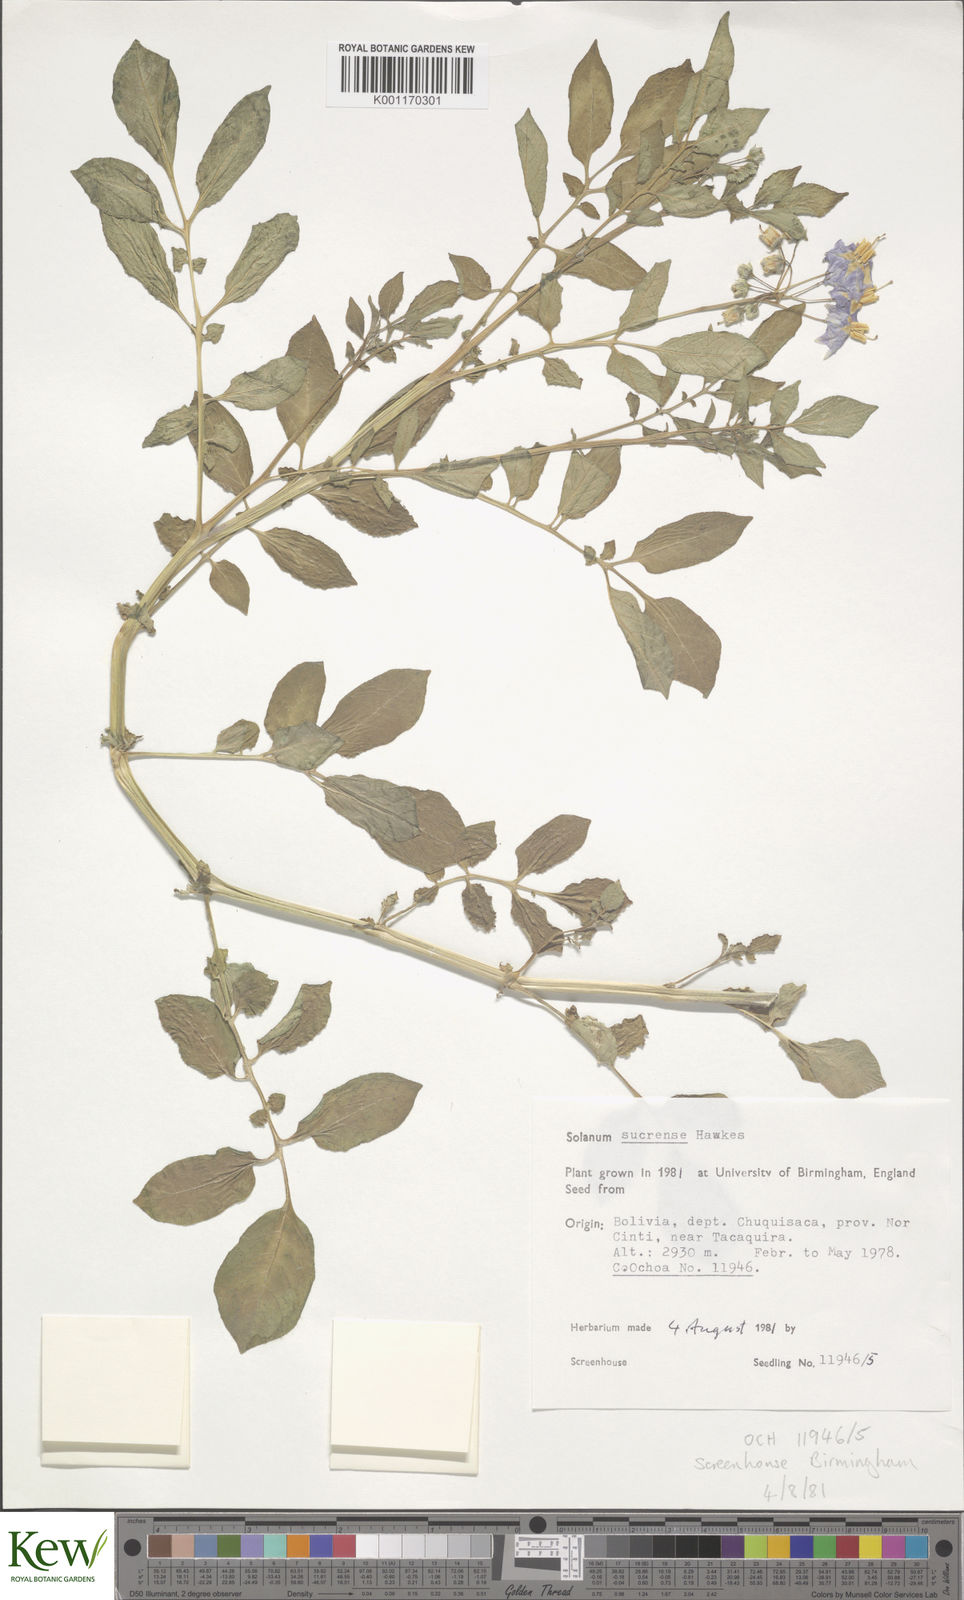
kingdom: Plantae
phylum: Tracheophyta
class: Magnoliopsida
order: Solanales
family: Solanaceae
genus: Solanum
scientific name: Solanum brevicaule
